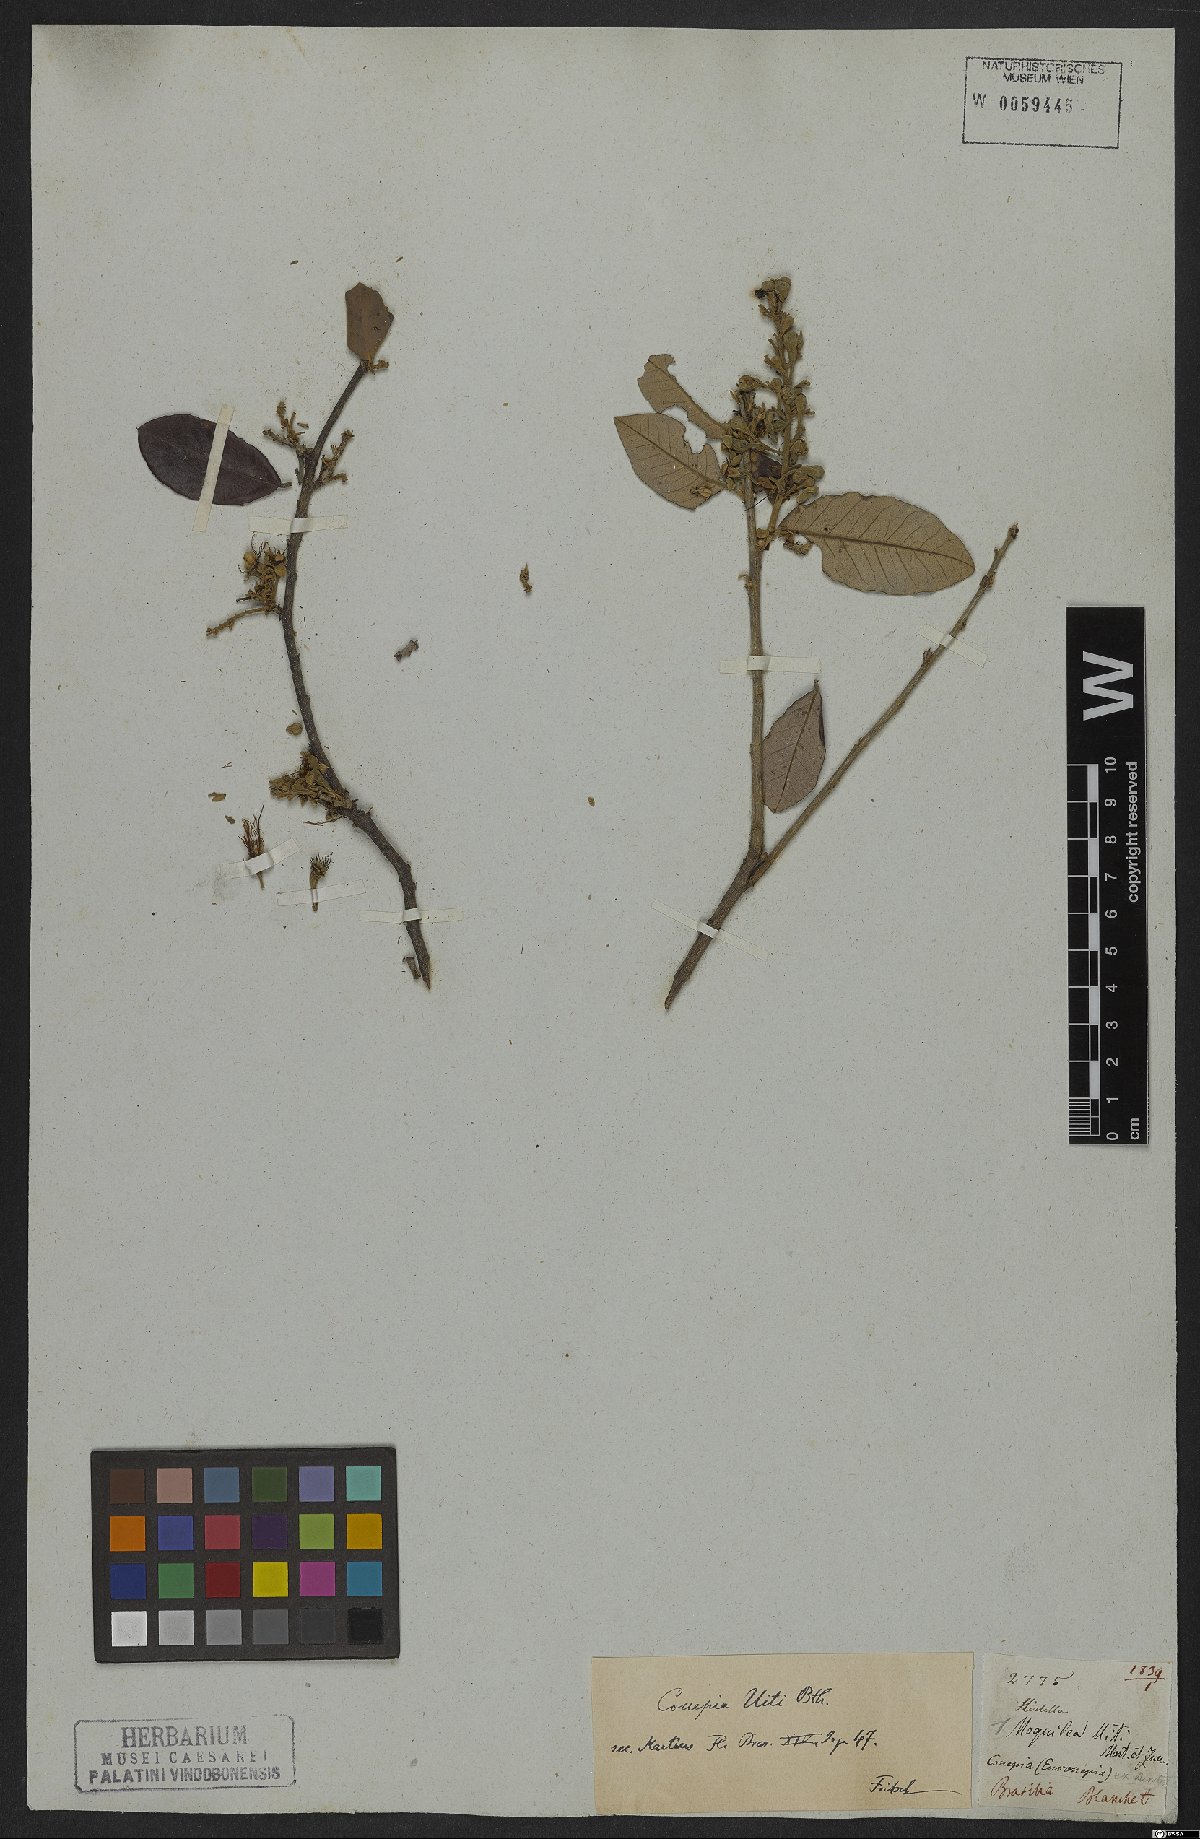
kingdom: Plantae
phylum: Tracheophyta
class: Magnoliopsida
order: Malpighiales
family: Chrysobalanaceae
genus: Couepia
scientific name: Couepia uiti
